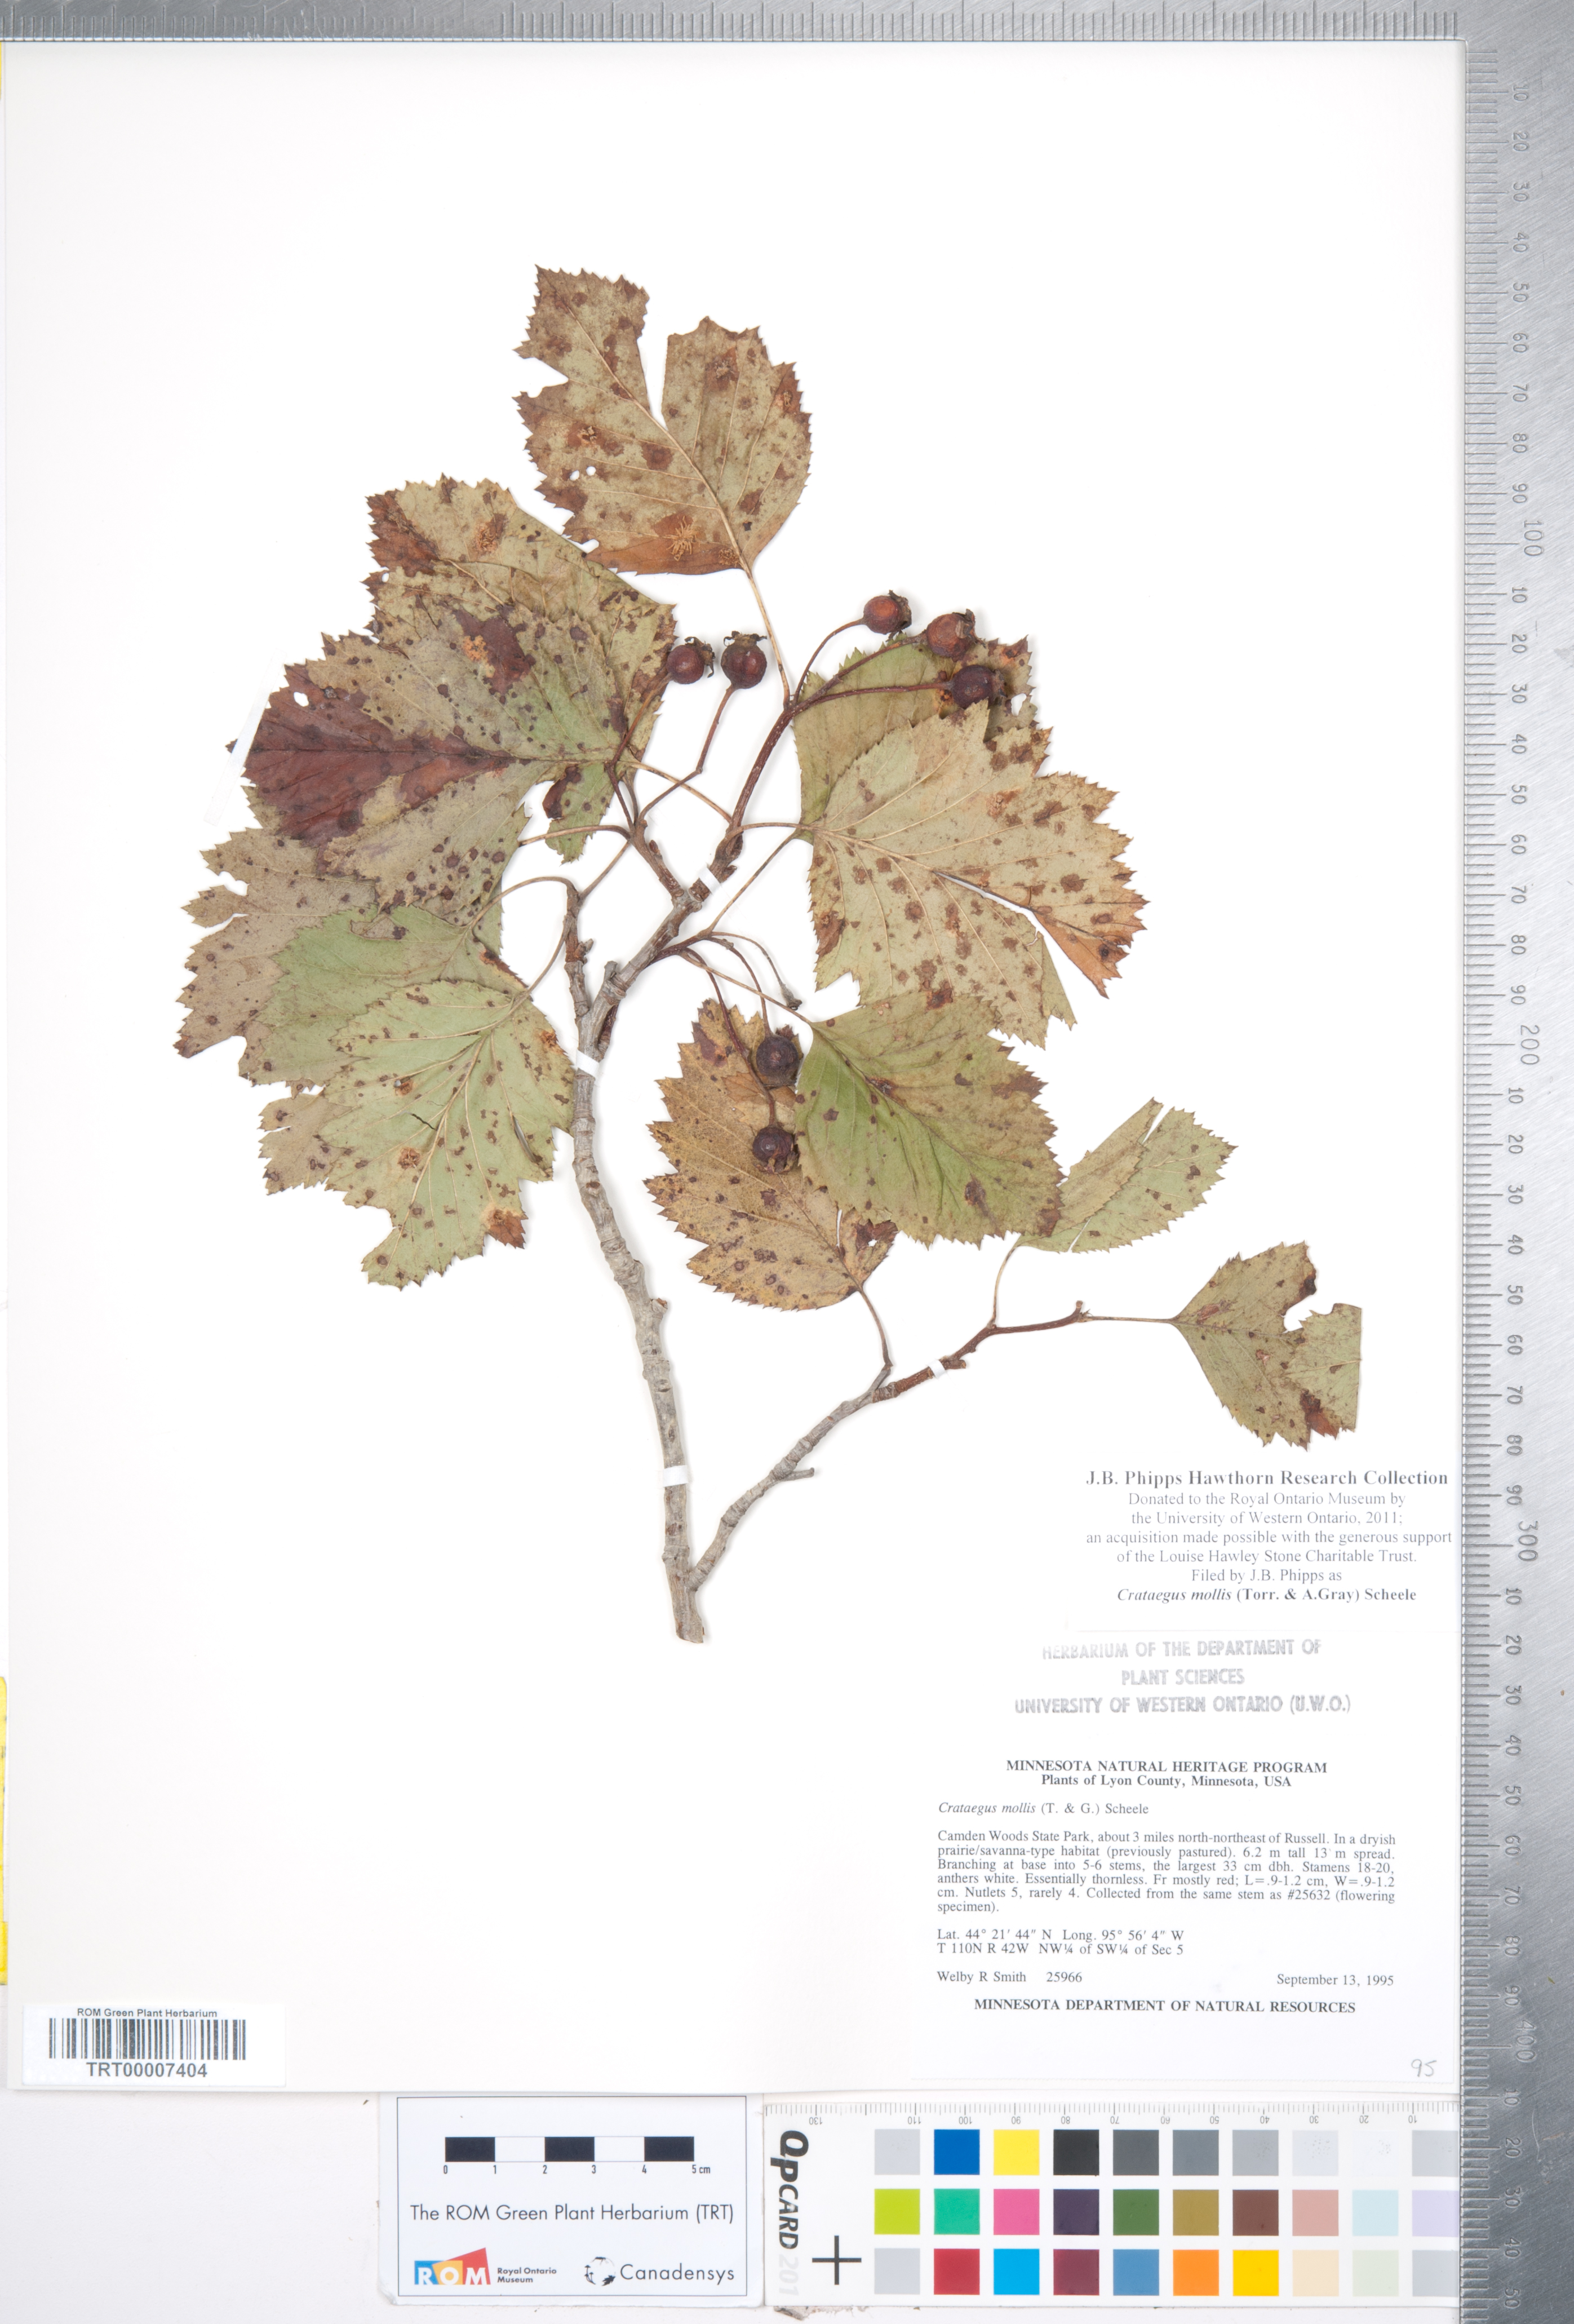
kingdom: Plantae
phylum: Tracheophyta
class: Magnoliopsida
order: Rosales
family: Rosaceae
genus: Crataegus
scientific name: Crataegus mollis
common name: Downy hawthorn
